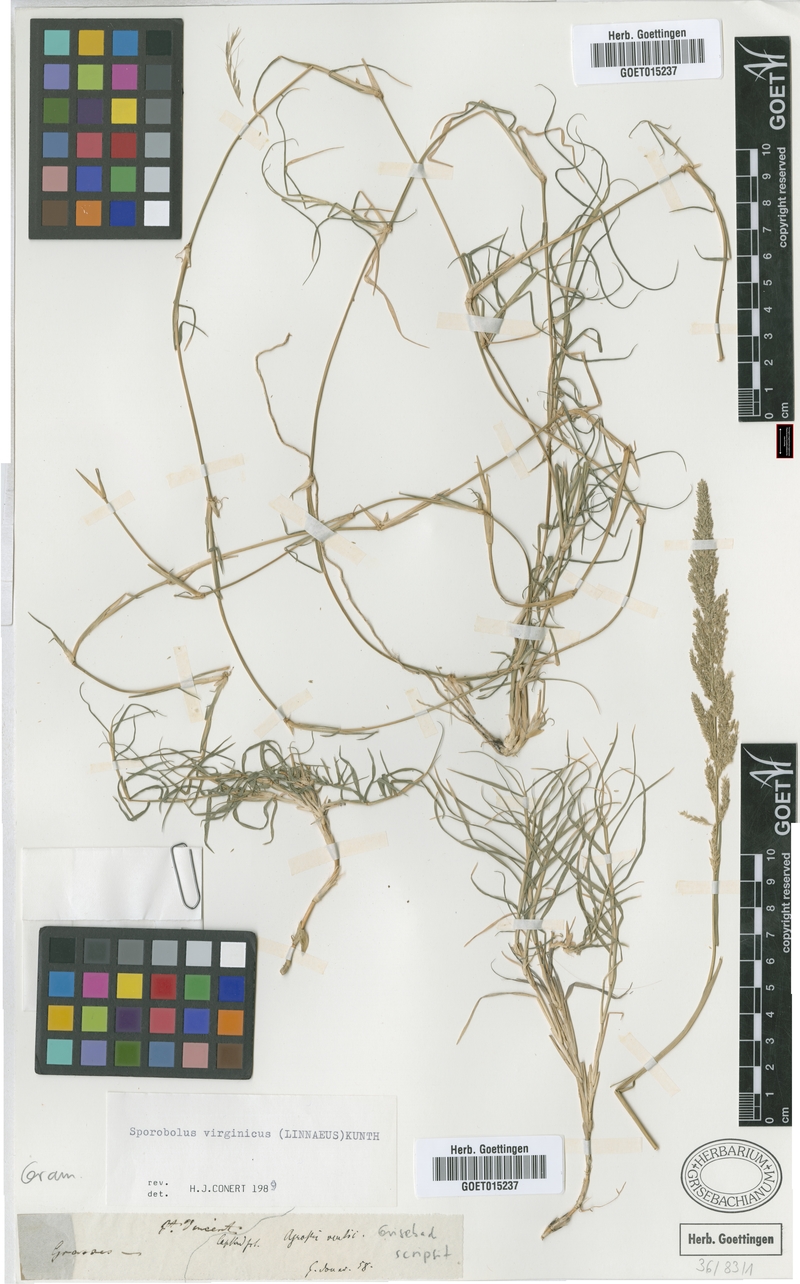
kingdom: Plantae
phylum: Tracheophyta
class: Liliopsida
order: Poales
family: Poaceae
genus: Sporobolus
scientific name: Sporobolus virginicus
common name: Beach dropseed
